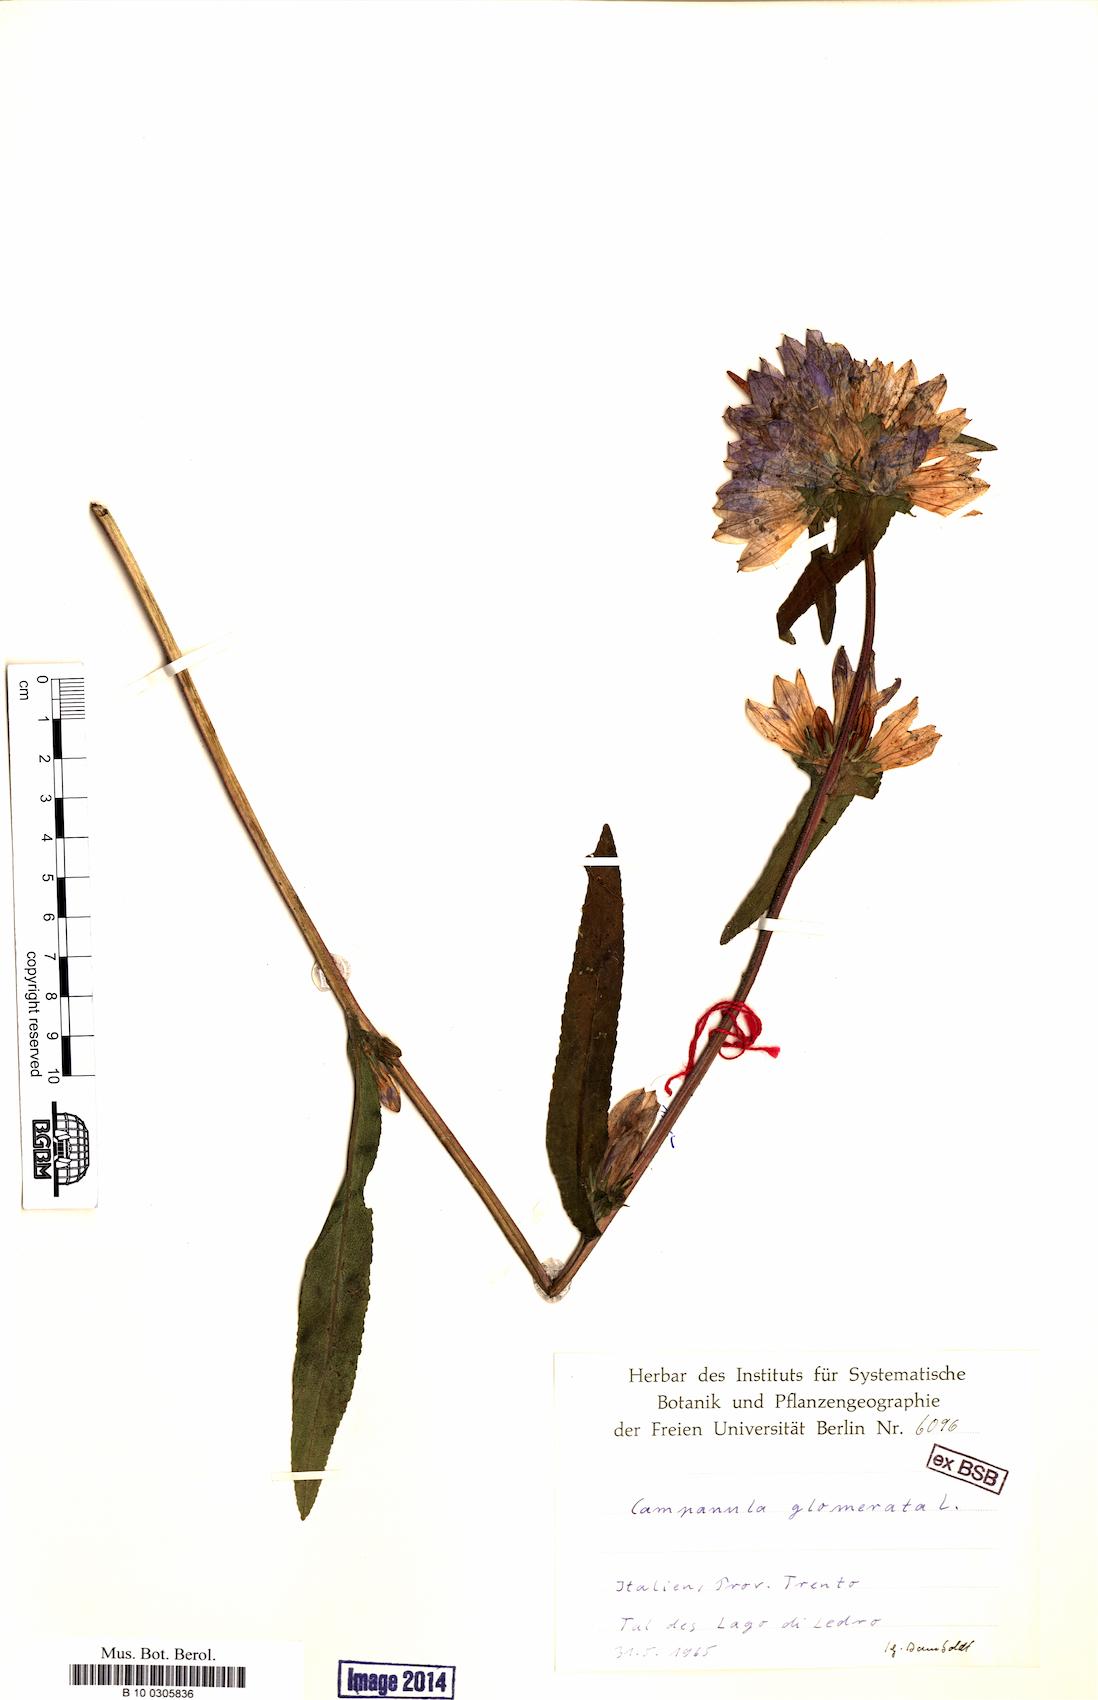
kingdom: Plantae
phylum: Tracheophyta
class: Magnoliopsida
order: Asterales
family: Campanulaceae
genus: Campanula
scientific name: Campanula glomerata
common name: Clustered bellflower
